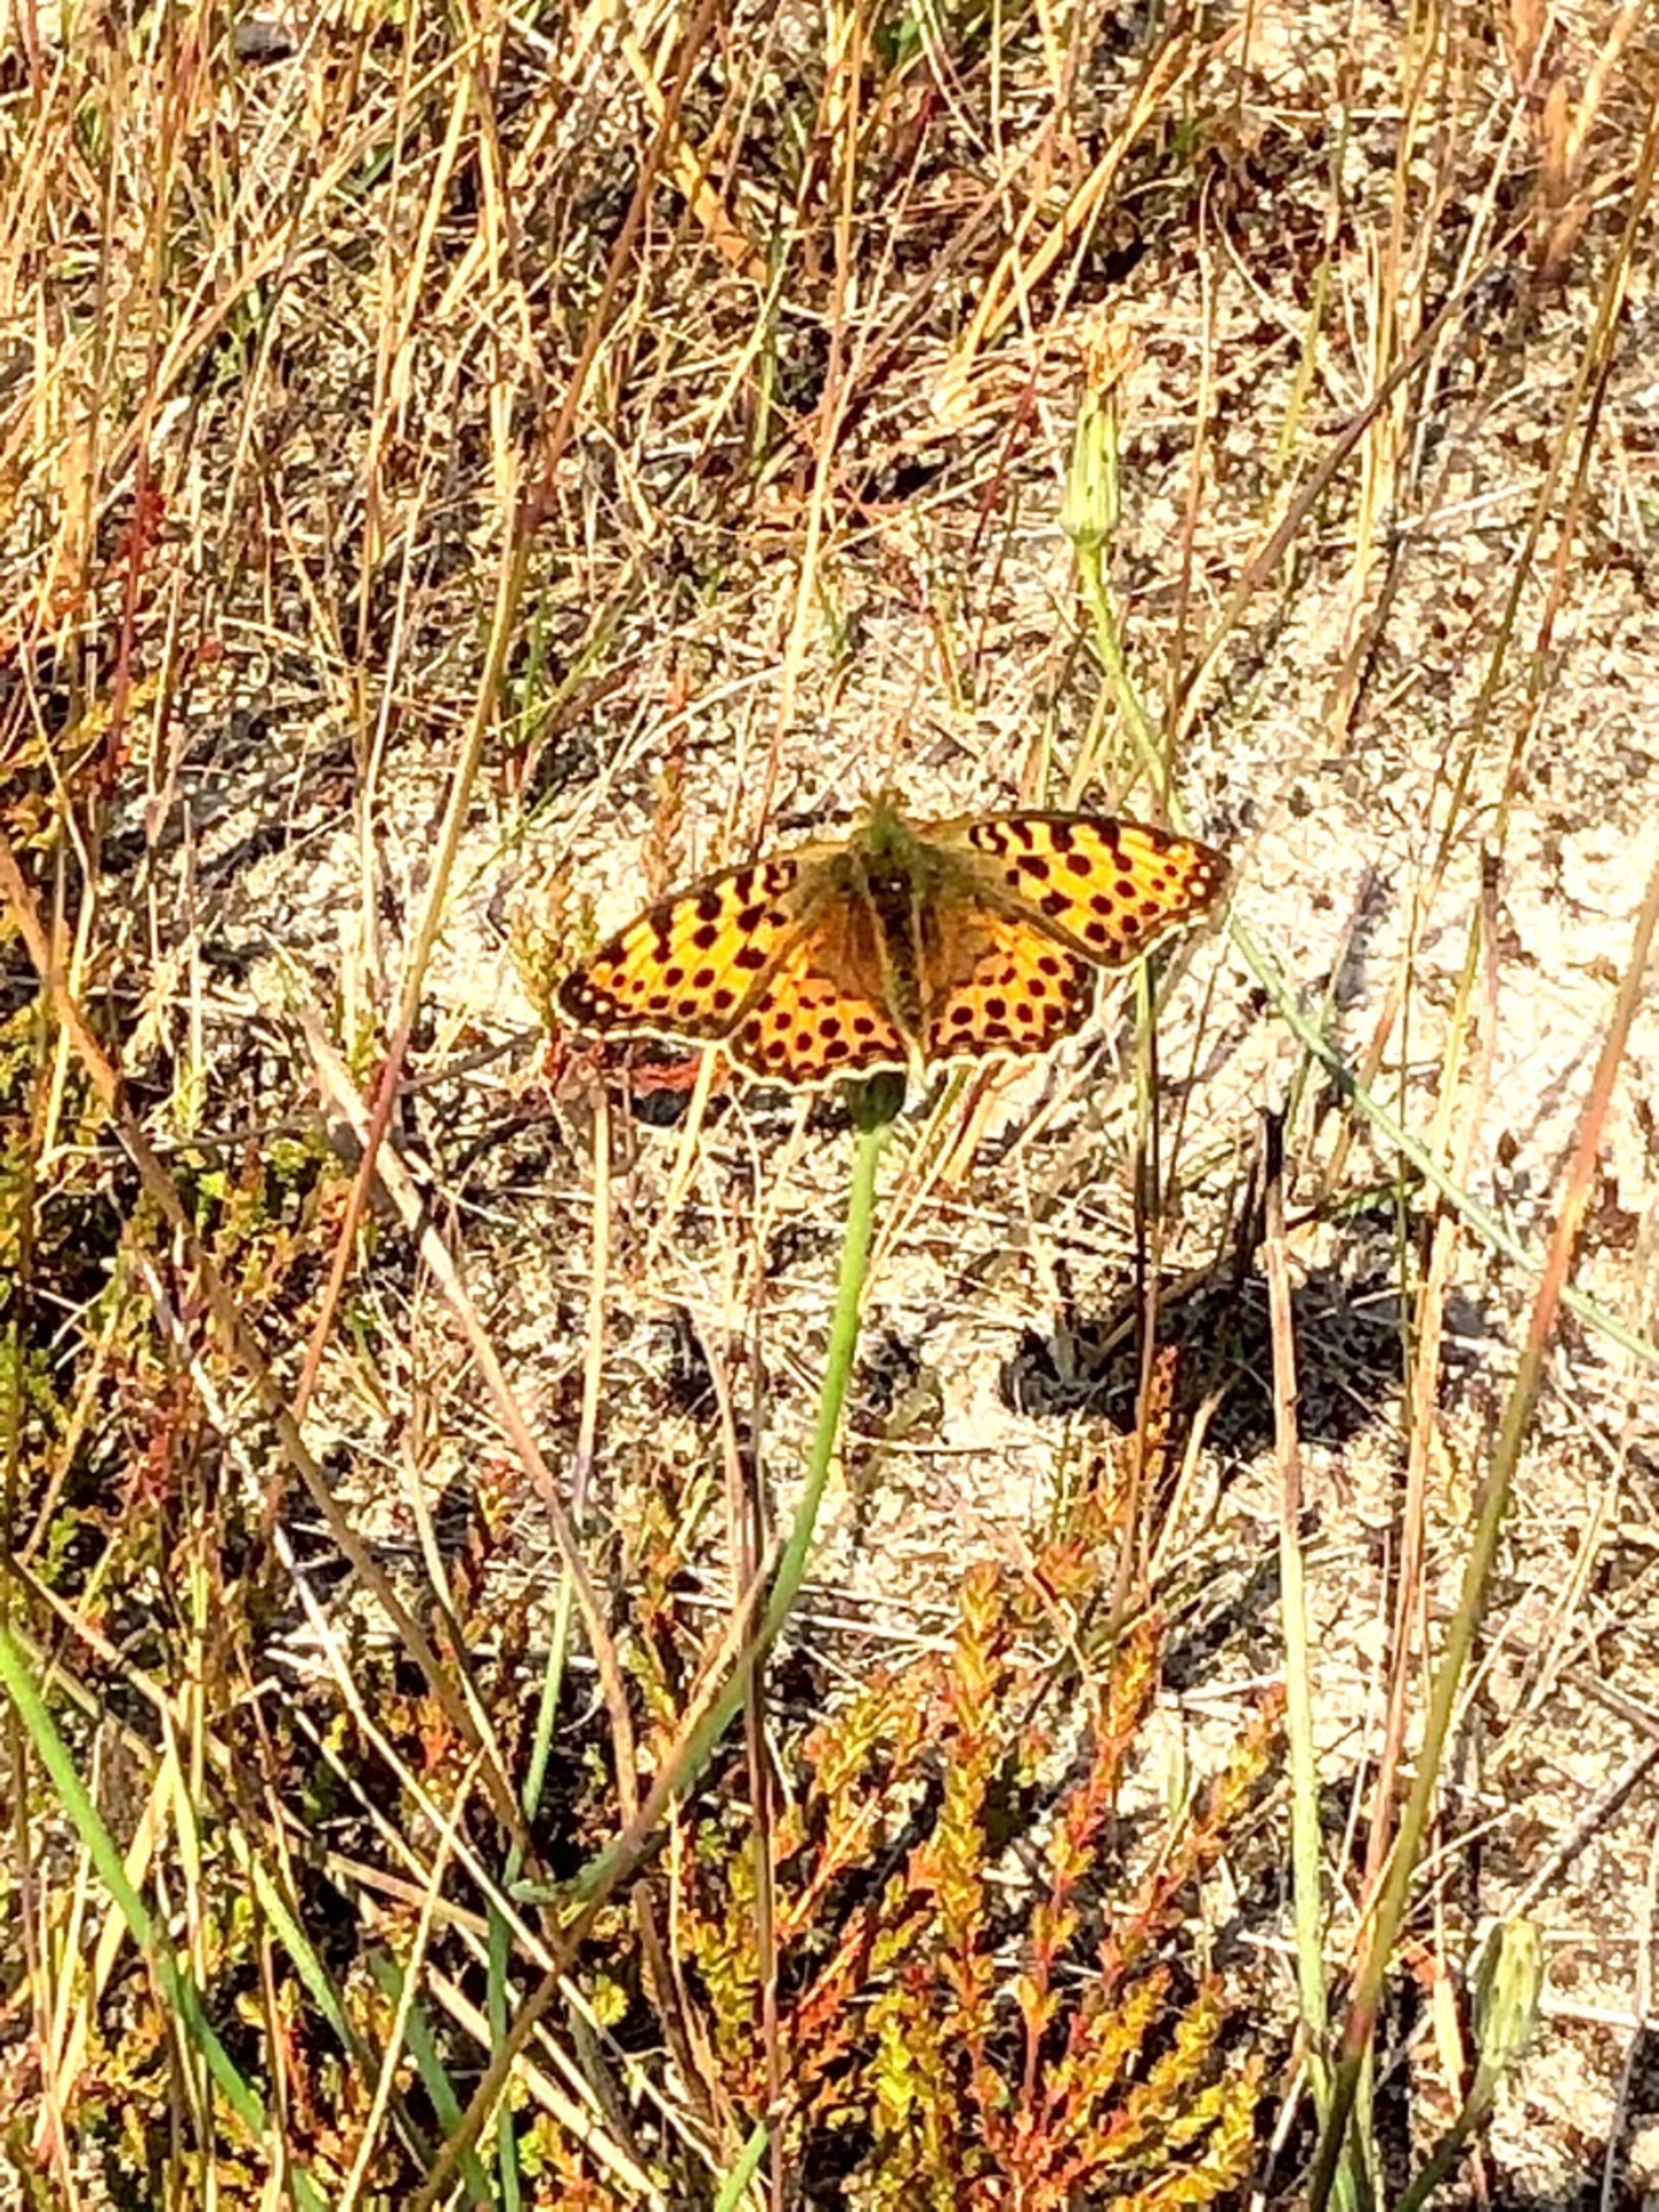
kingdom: Animalia
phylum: Arthropoda
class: Insecta
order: Lepidoptera
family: Nymphalidae
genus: Issoria
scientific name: Issoria lathonia
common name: Storplettet perlemorsommerfugl
